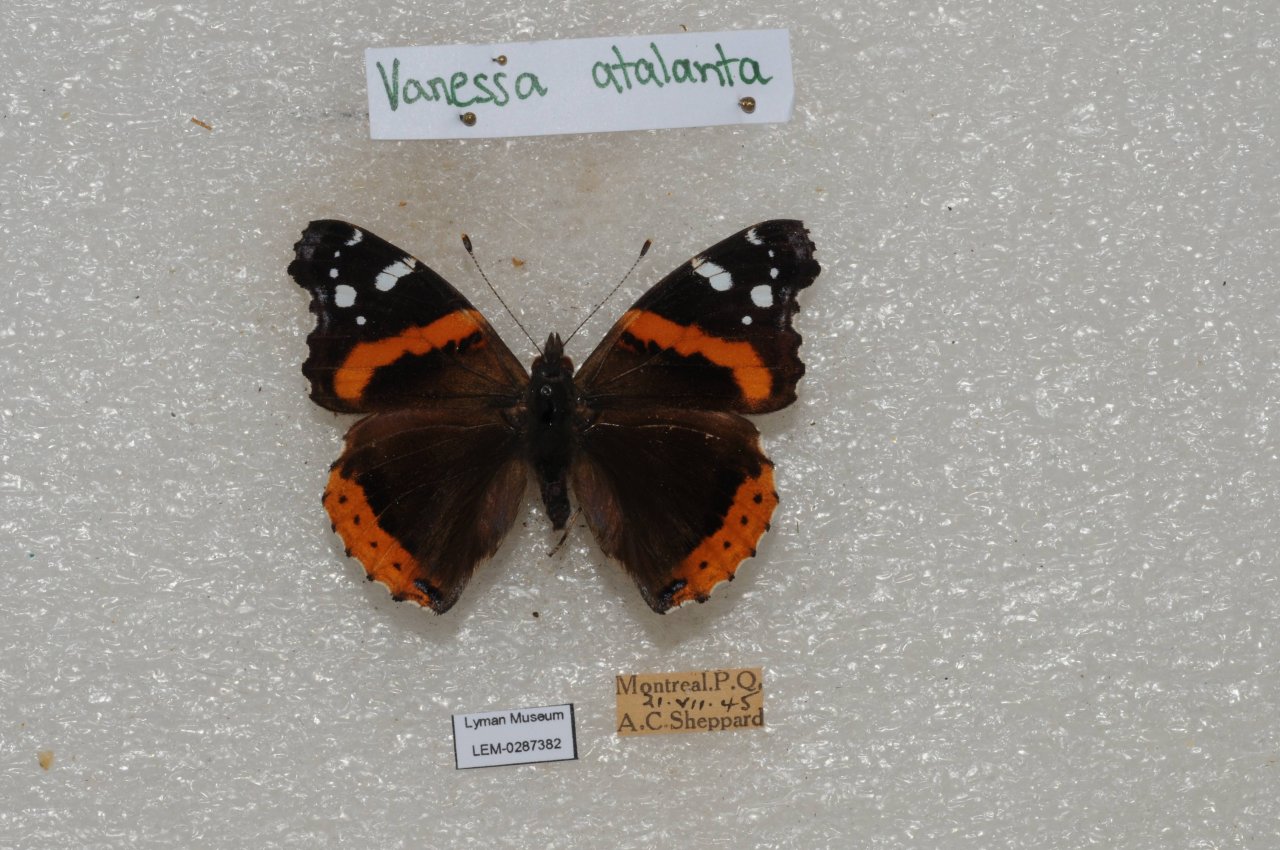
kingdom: Animalia
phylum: Arthropoda
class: Insecta
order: Lepidoptera
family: Nymphalidae
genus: Vanessa
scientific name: Vanessa atalanta
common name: Red Admiral
